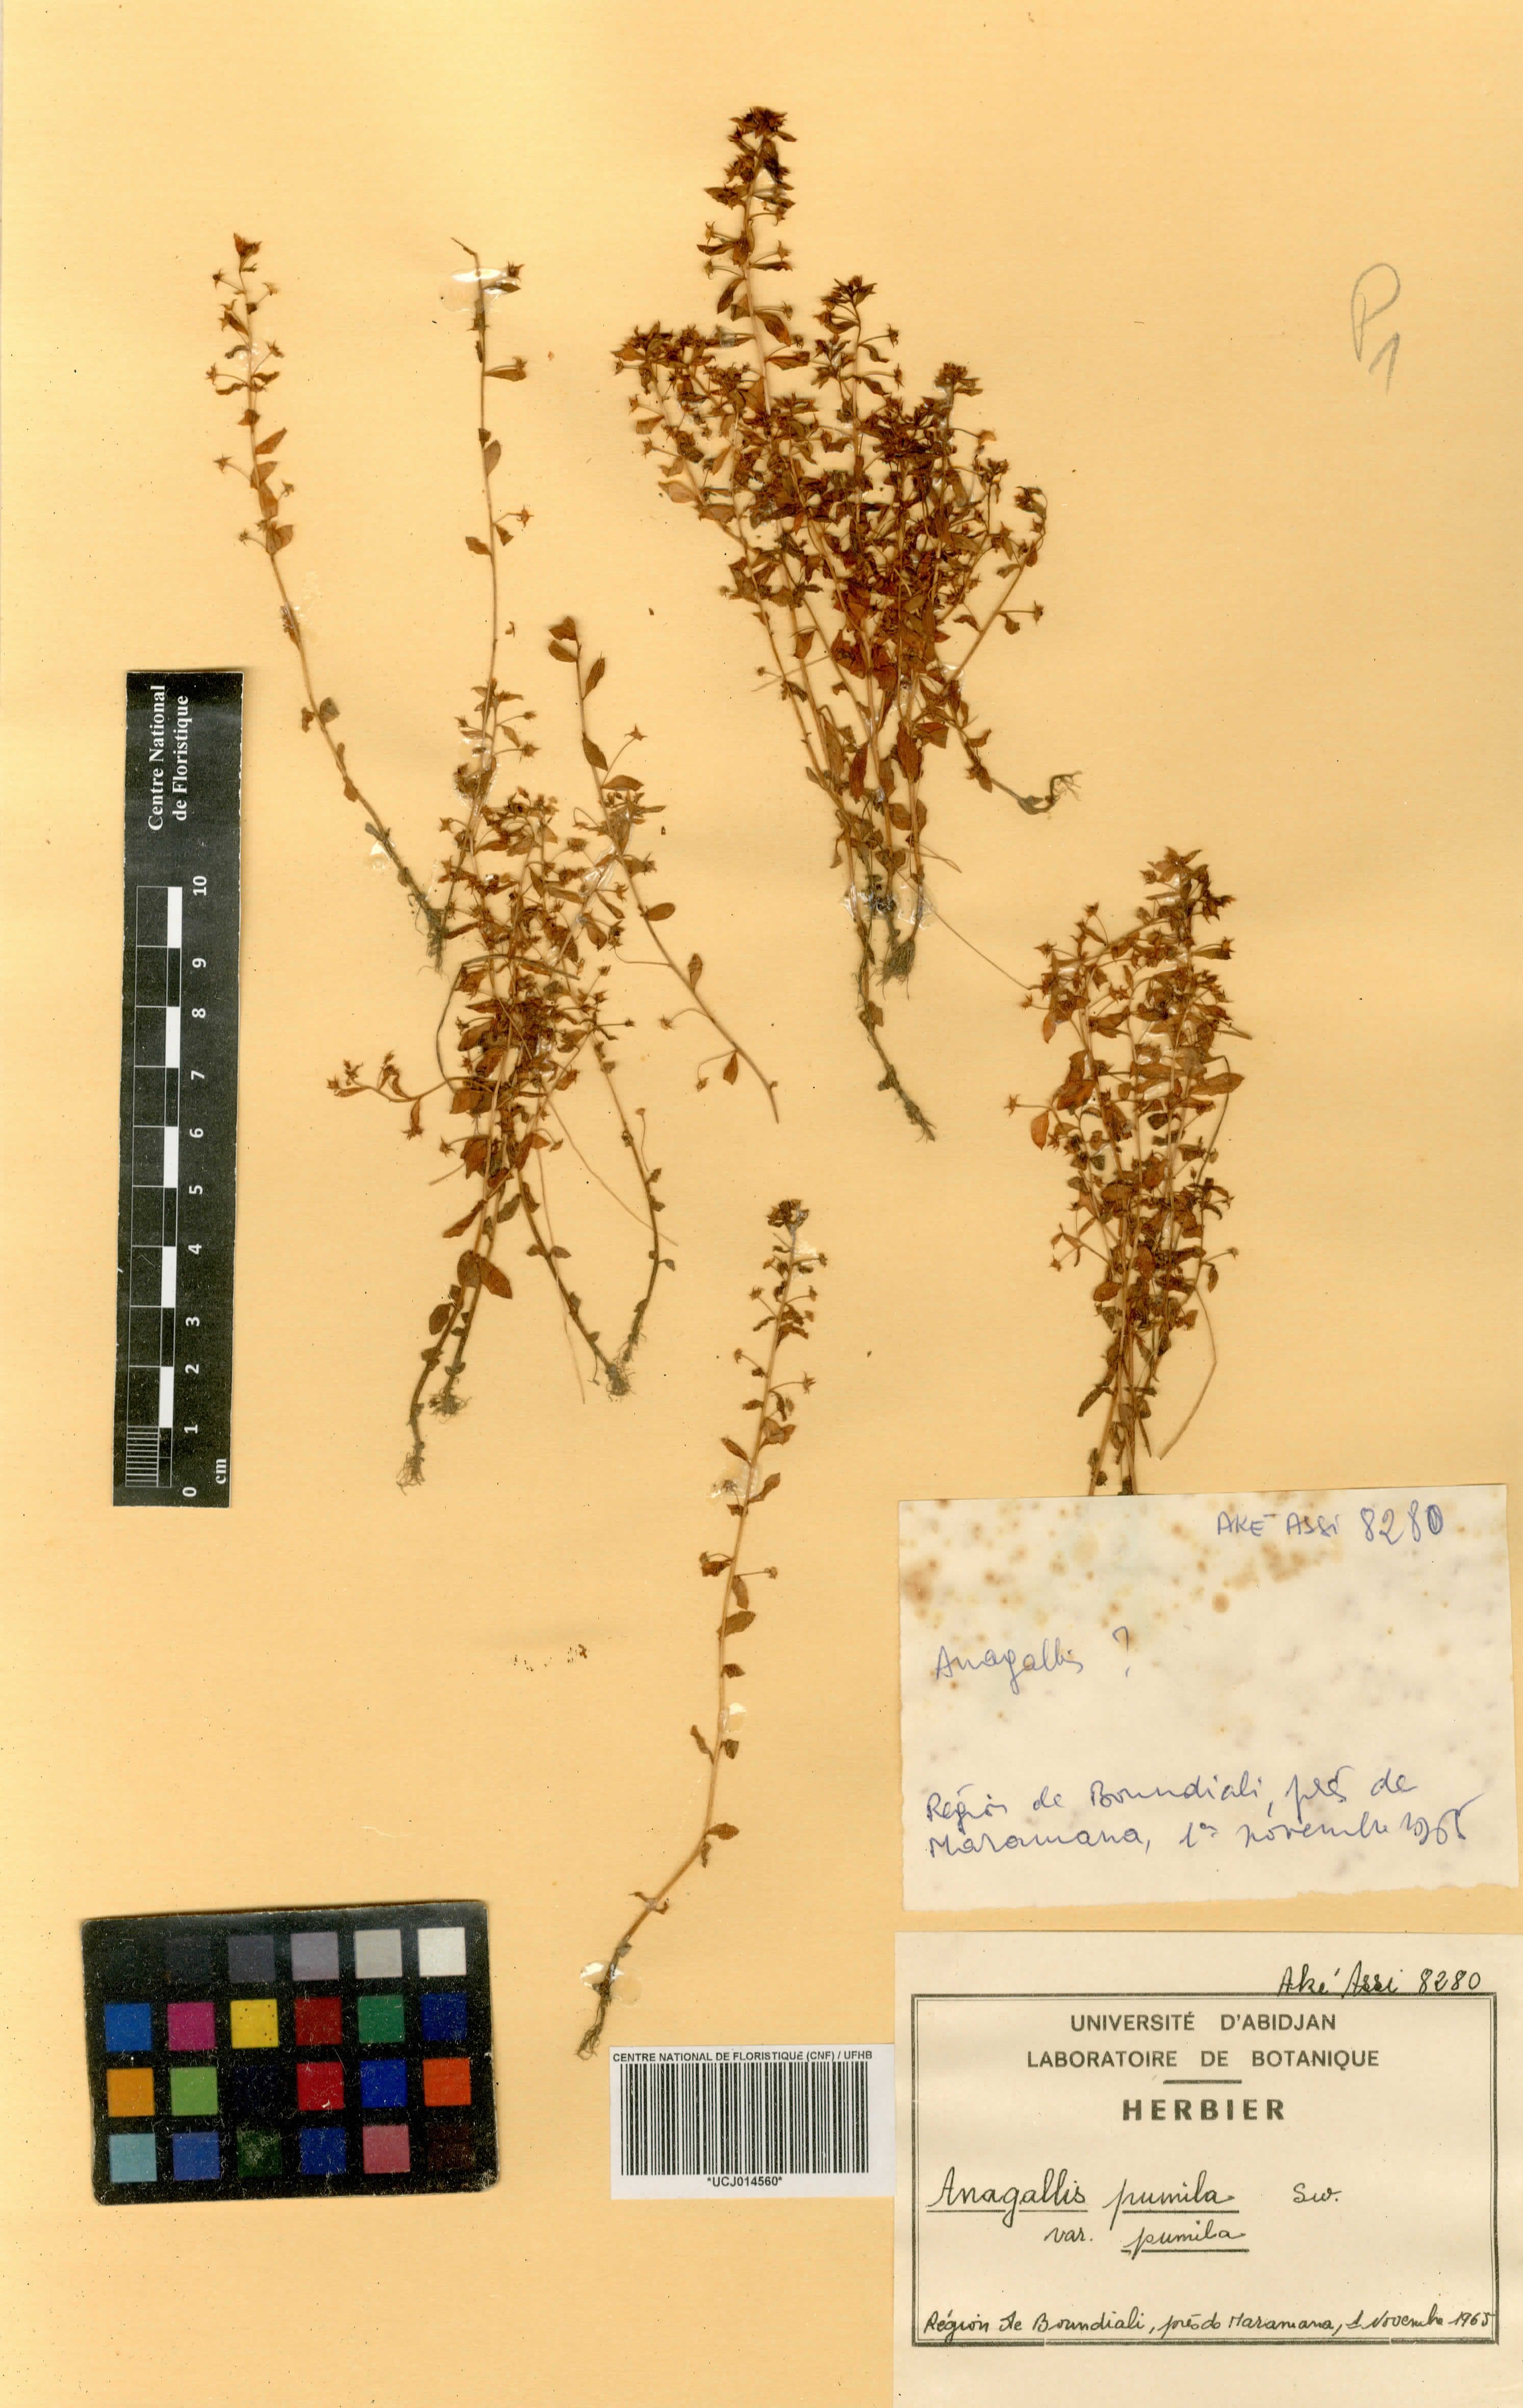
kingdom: Plantae
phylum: Tracheophyta
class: Magnoliopsida
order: Ericales
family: Primulaceae
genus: Lysimachia
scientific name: Lysimachia ovalis
